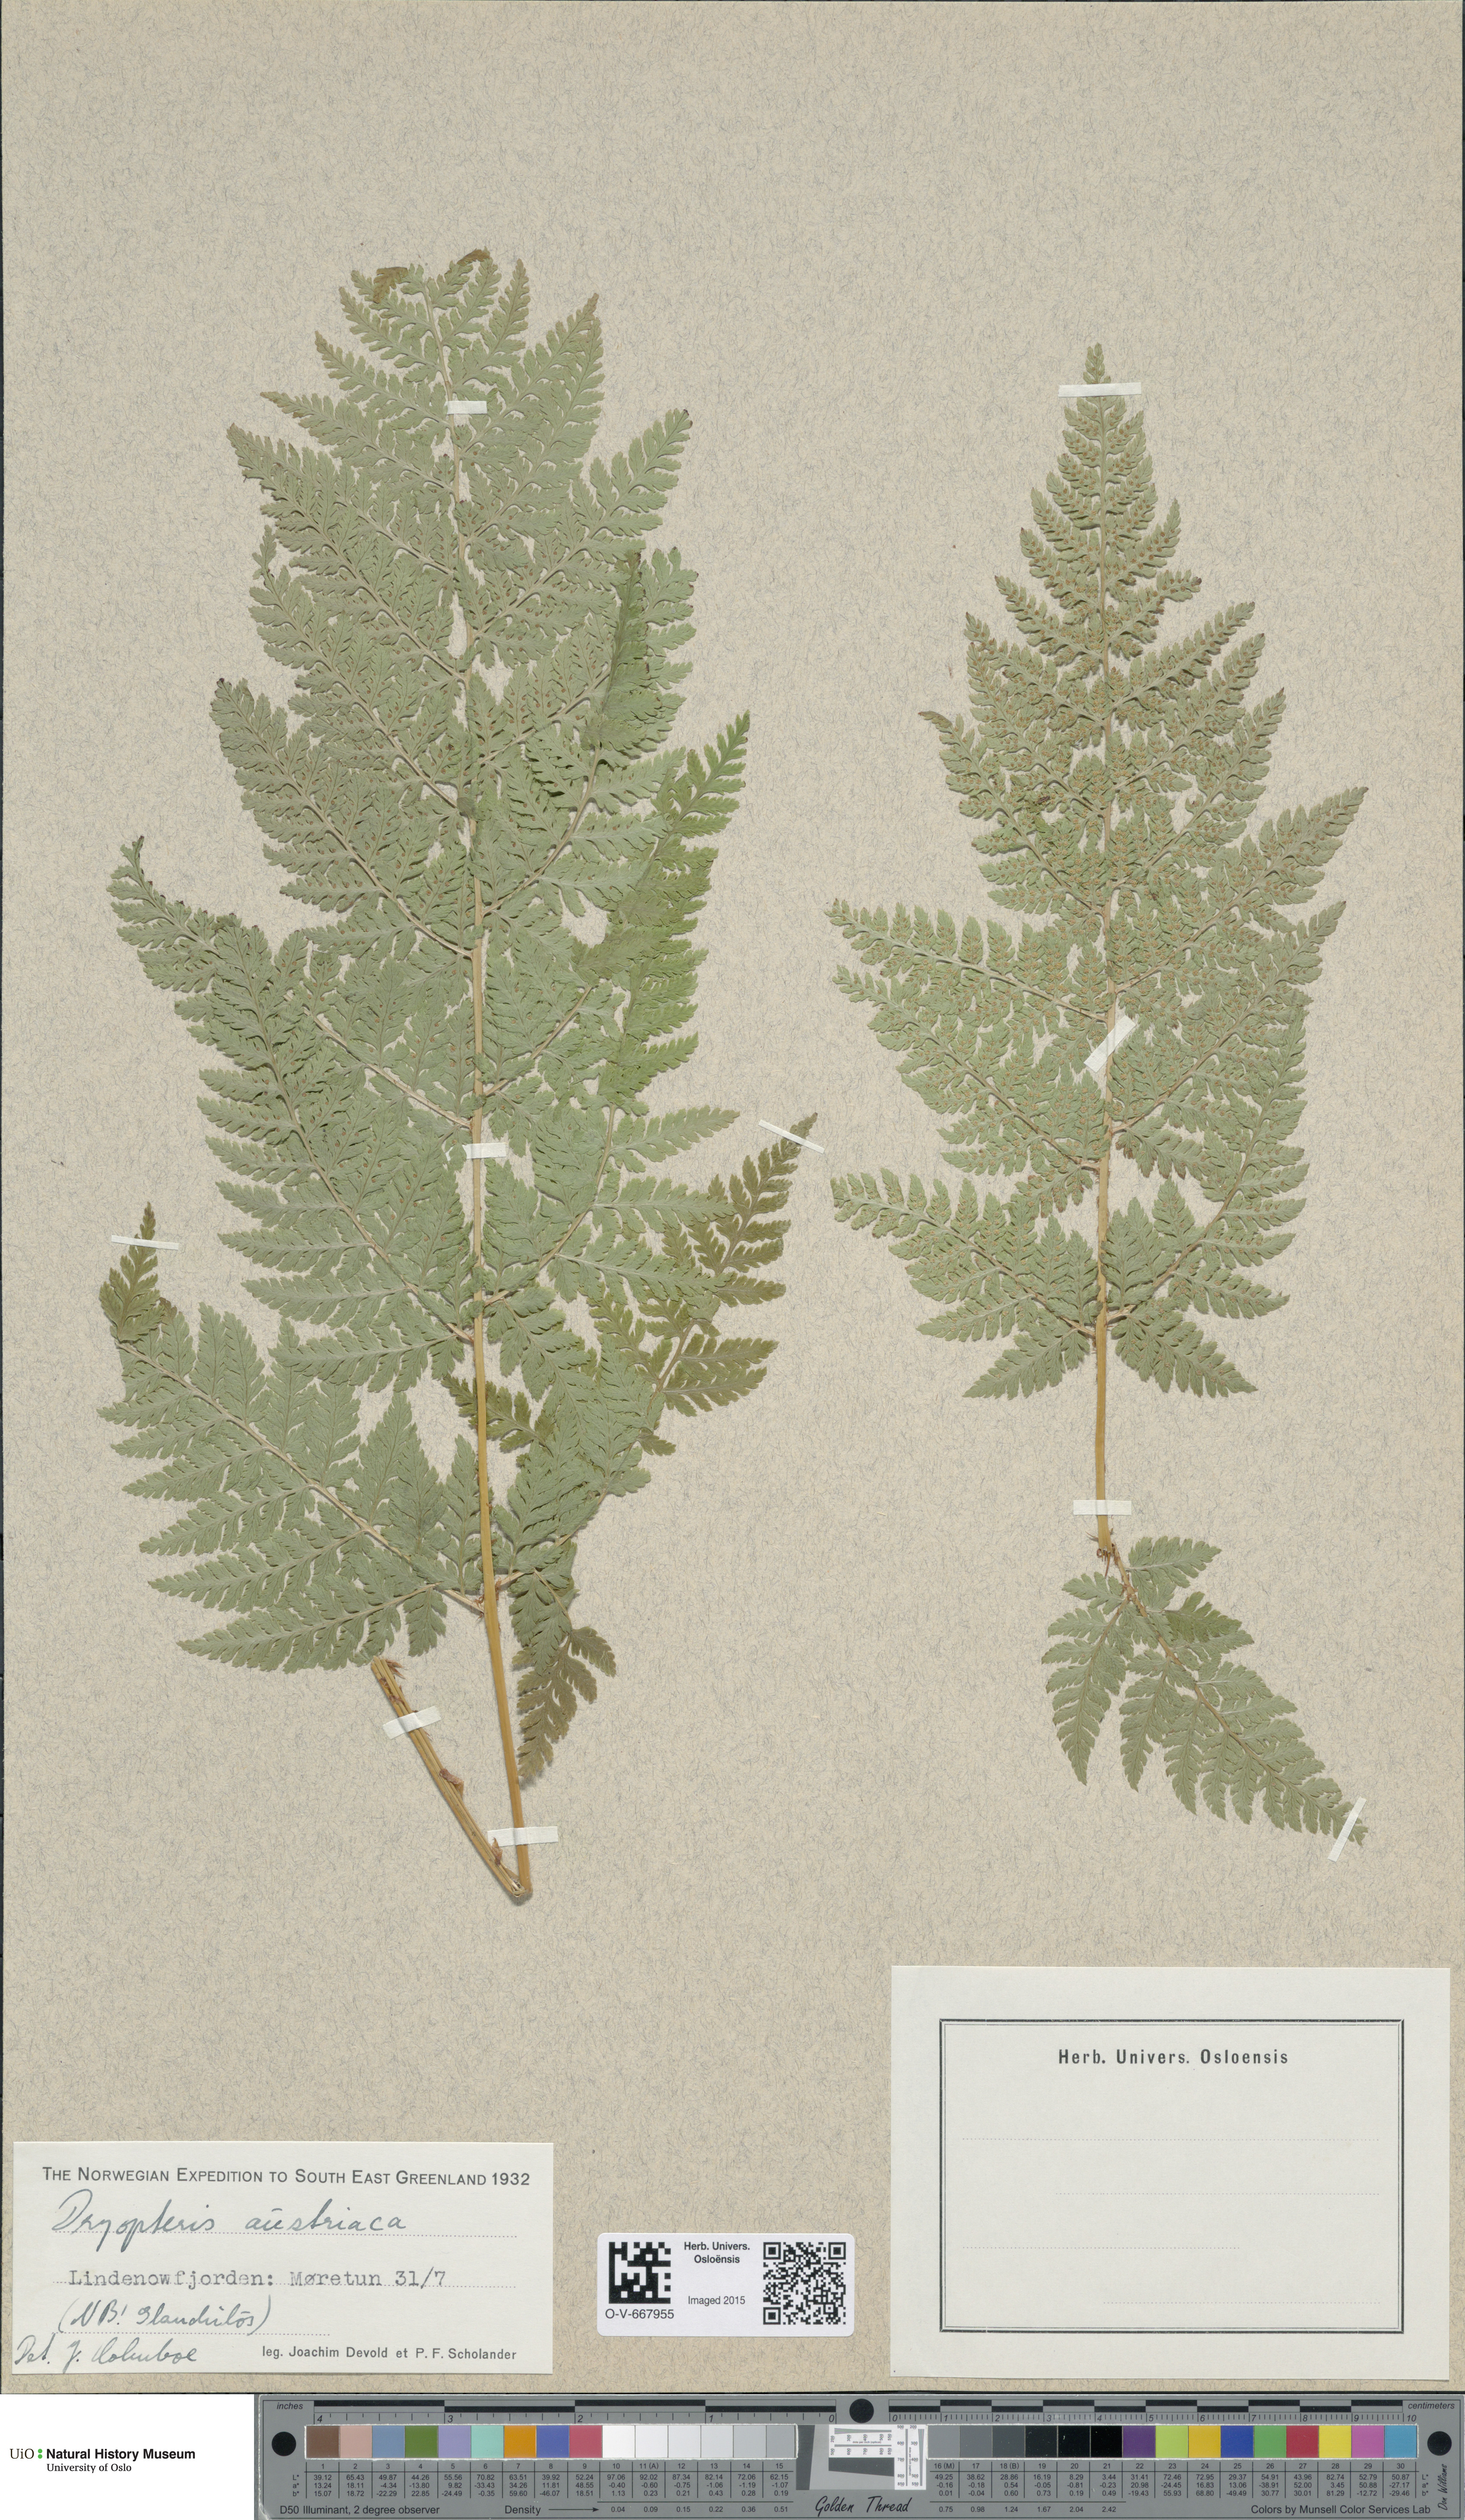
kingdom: Plantae
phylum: Tracheophyta
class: Polypodiopsida
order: Polypodiales
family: Dryopteridaceae
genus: Dryopteris
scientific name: Dryopteris dilatata
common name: Broad buckler-fern
